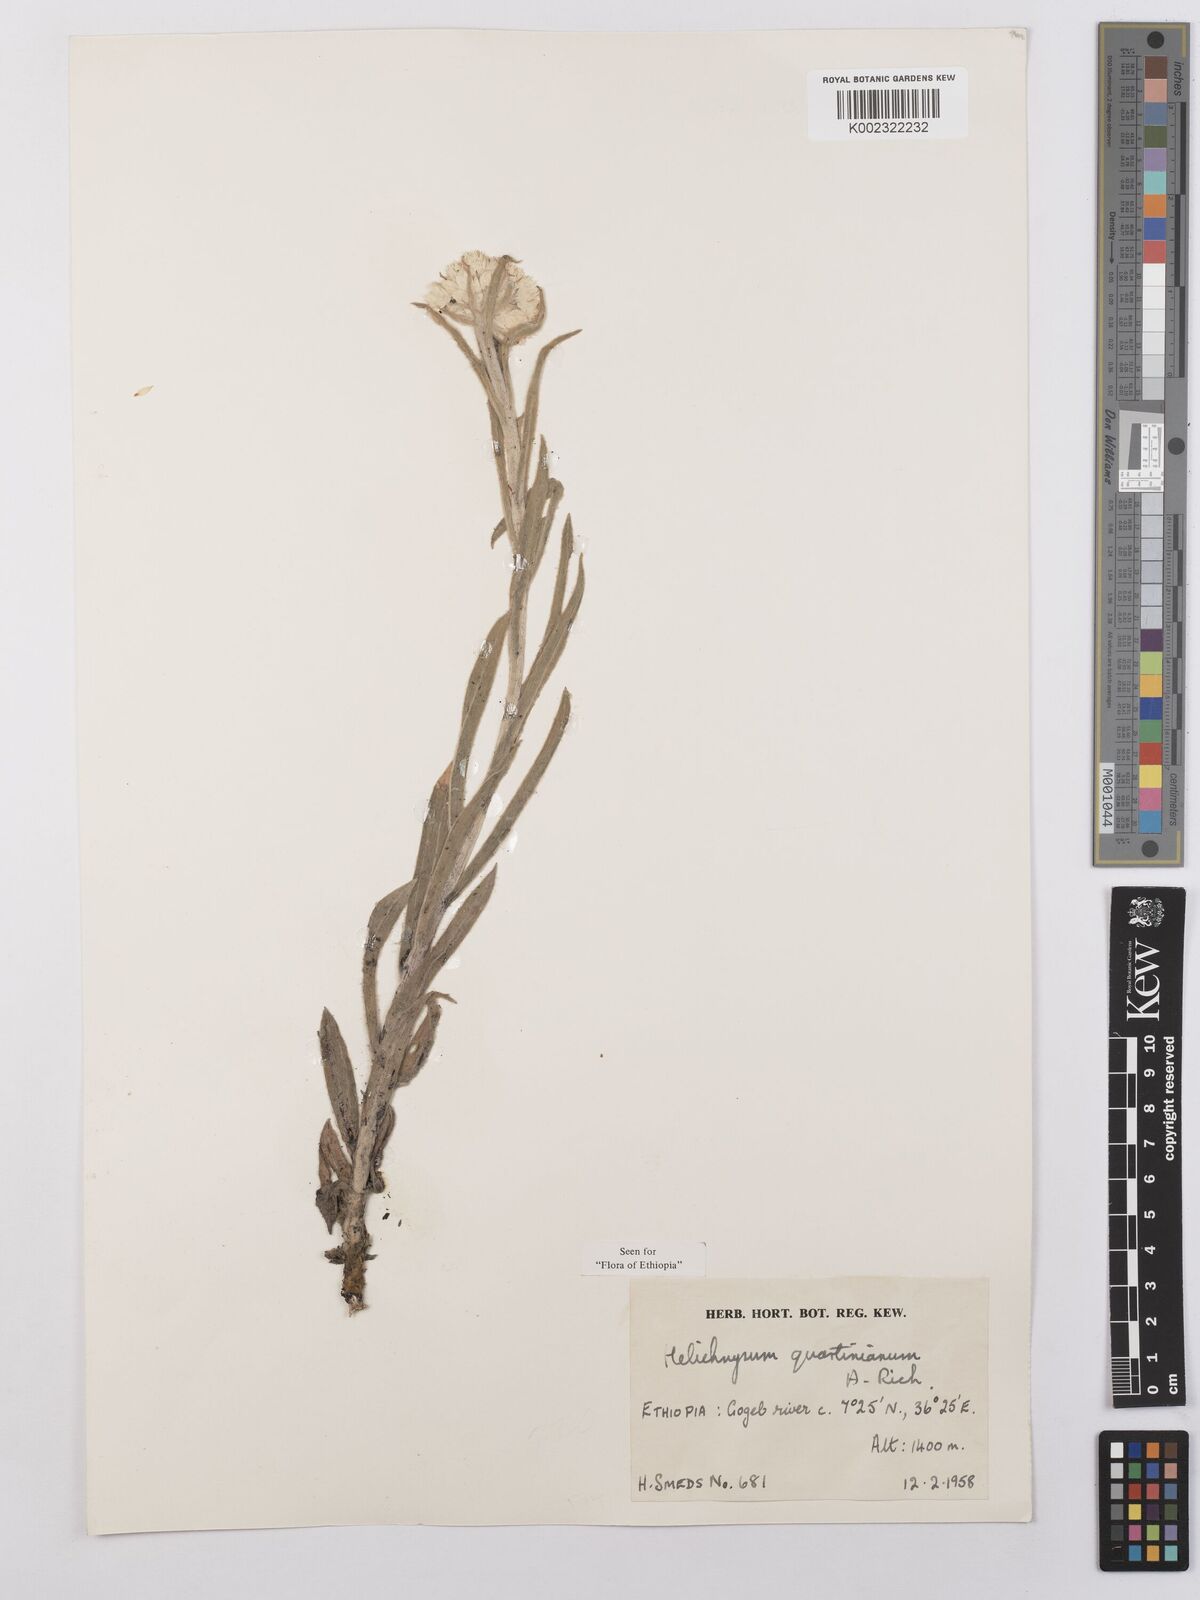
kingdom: Plantae
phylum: Tracheophyta
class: Magnoliopsida
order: Asterales
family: Asteraceae
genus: Helichrysum
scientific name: Helichrysum quartinianum
